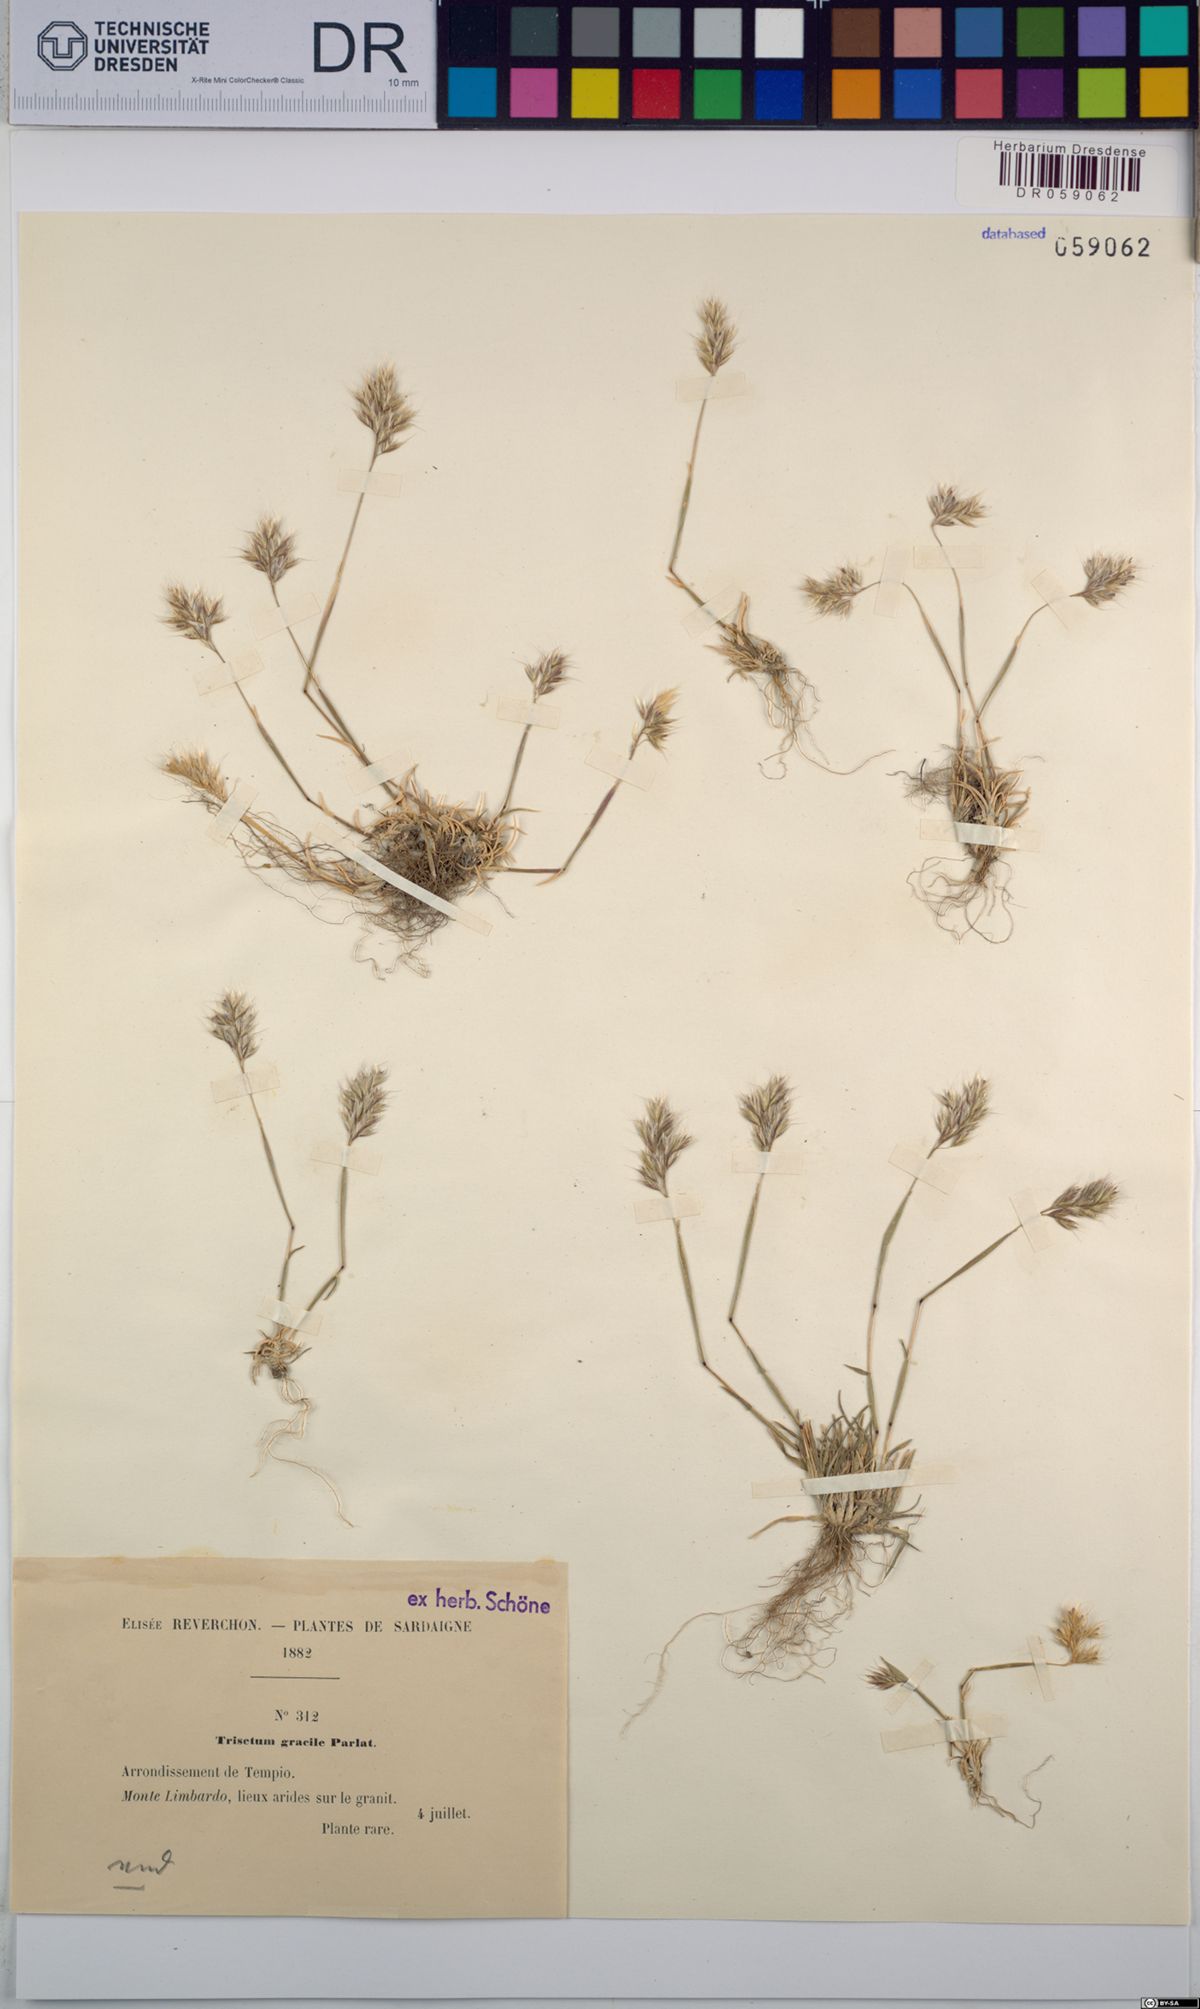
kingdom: Plantae
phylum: Tracheophyta
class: Liliopsida
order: Poales
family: Poaceae
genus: Trisetum
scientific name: Trisetum gracile
